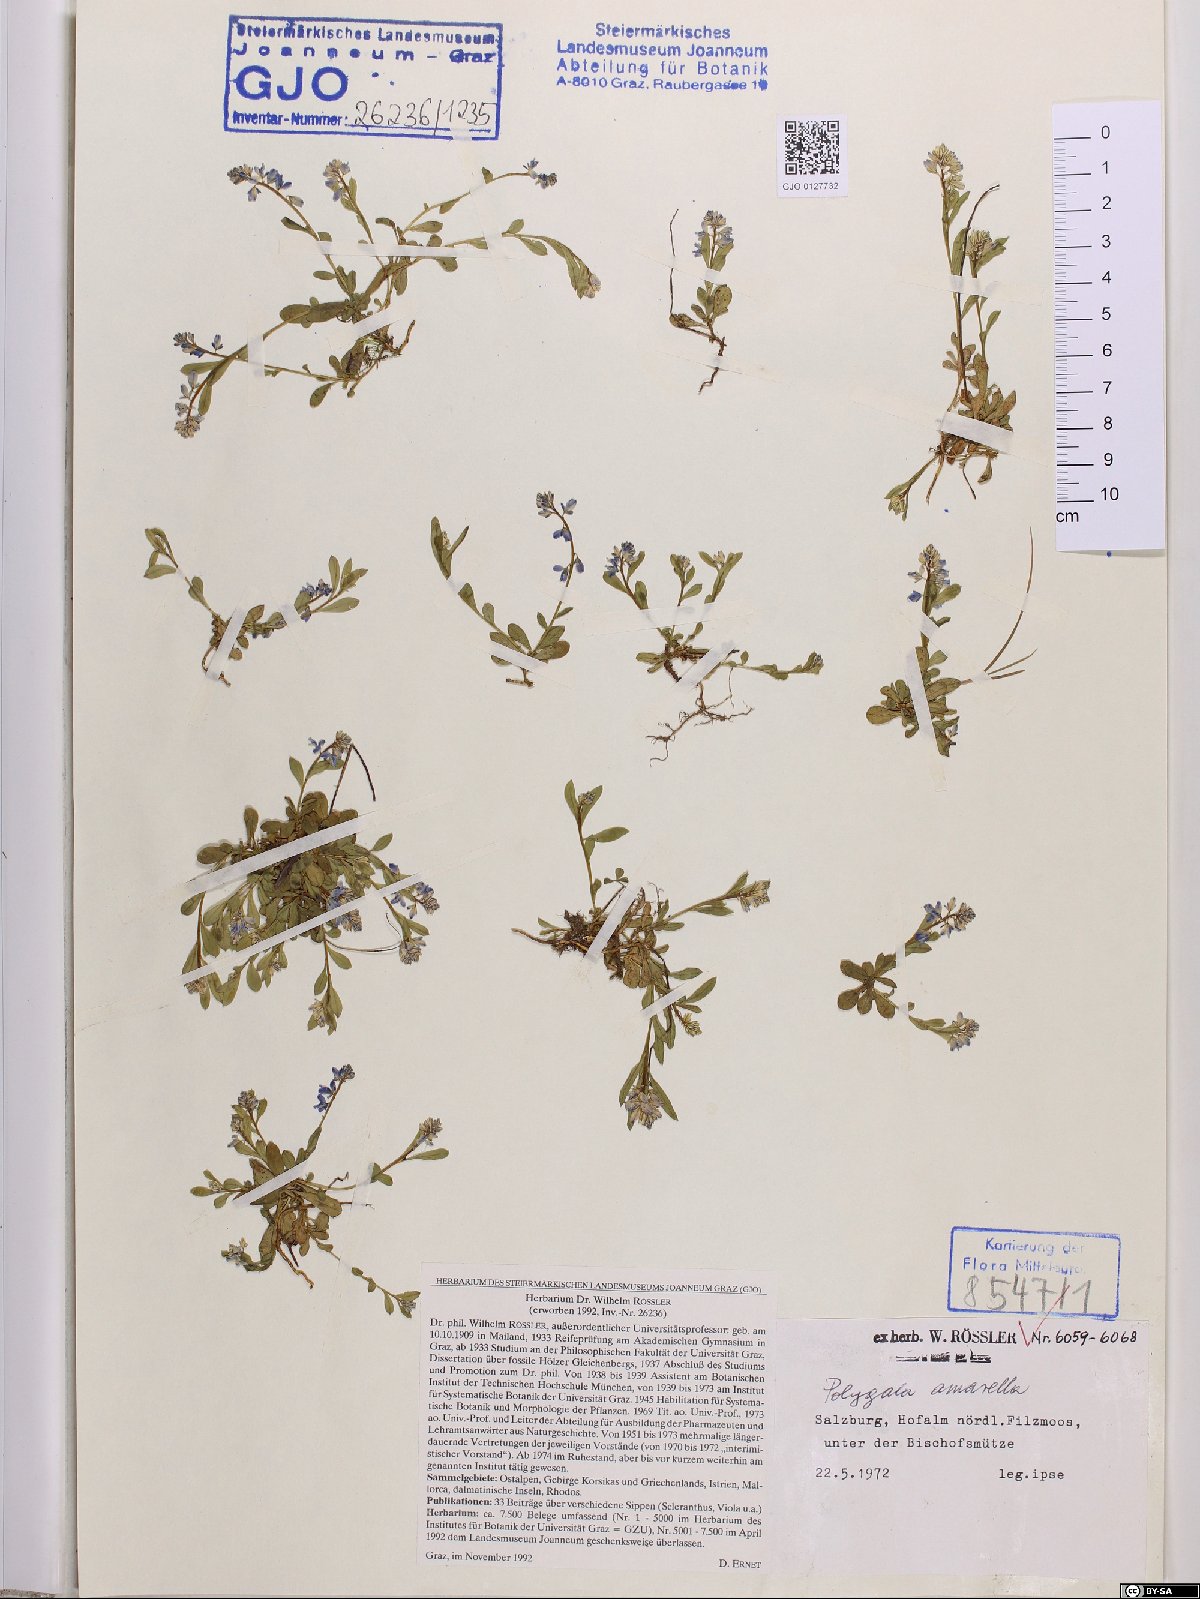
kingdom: Plantae
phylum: Tracheophyta
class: Magnoliopsida
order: Fabales
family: Polygalaceae
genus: Polygala
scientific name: Polygala amarella
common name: Dwarf milkwort
